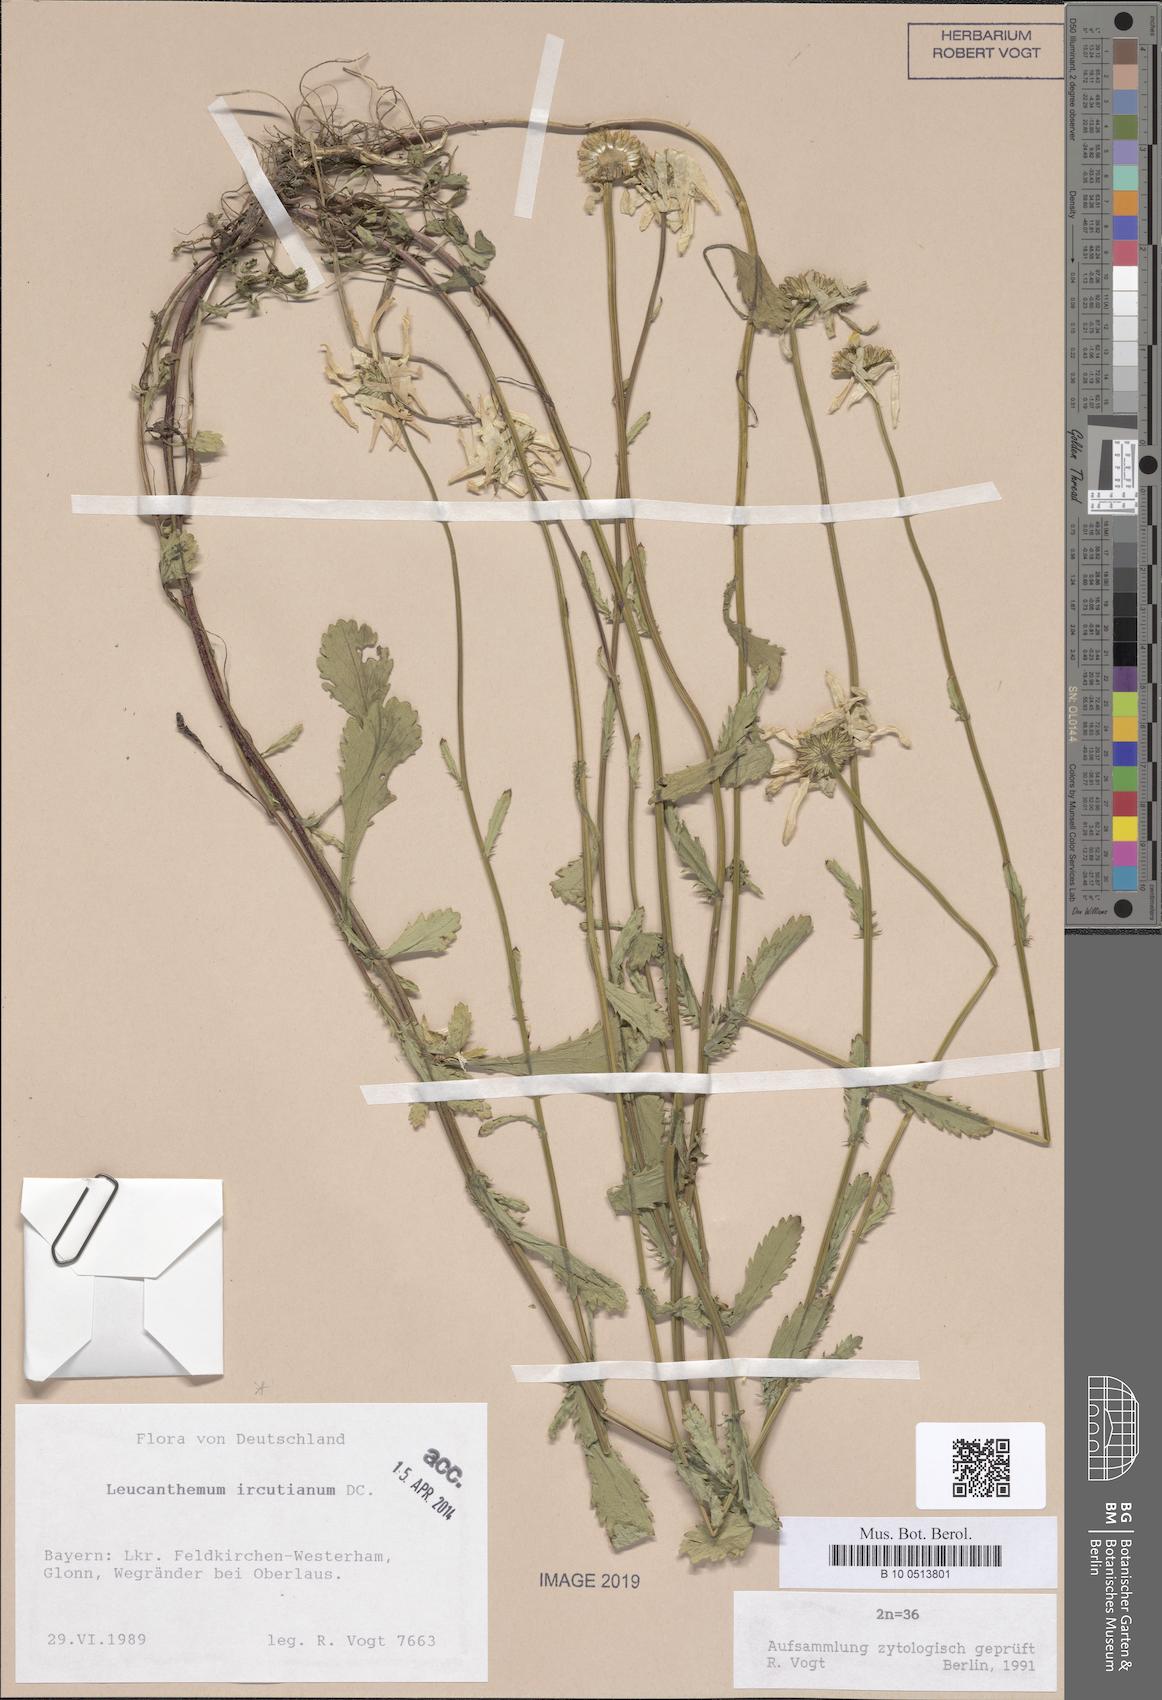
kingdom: Plantae
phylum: Tracheophyta
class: Magnoliopsida
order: Asterales
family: Asteraceae
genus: Leucanthemum
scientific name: Leucanthemum ircutianum
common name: Daisy
